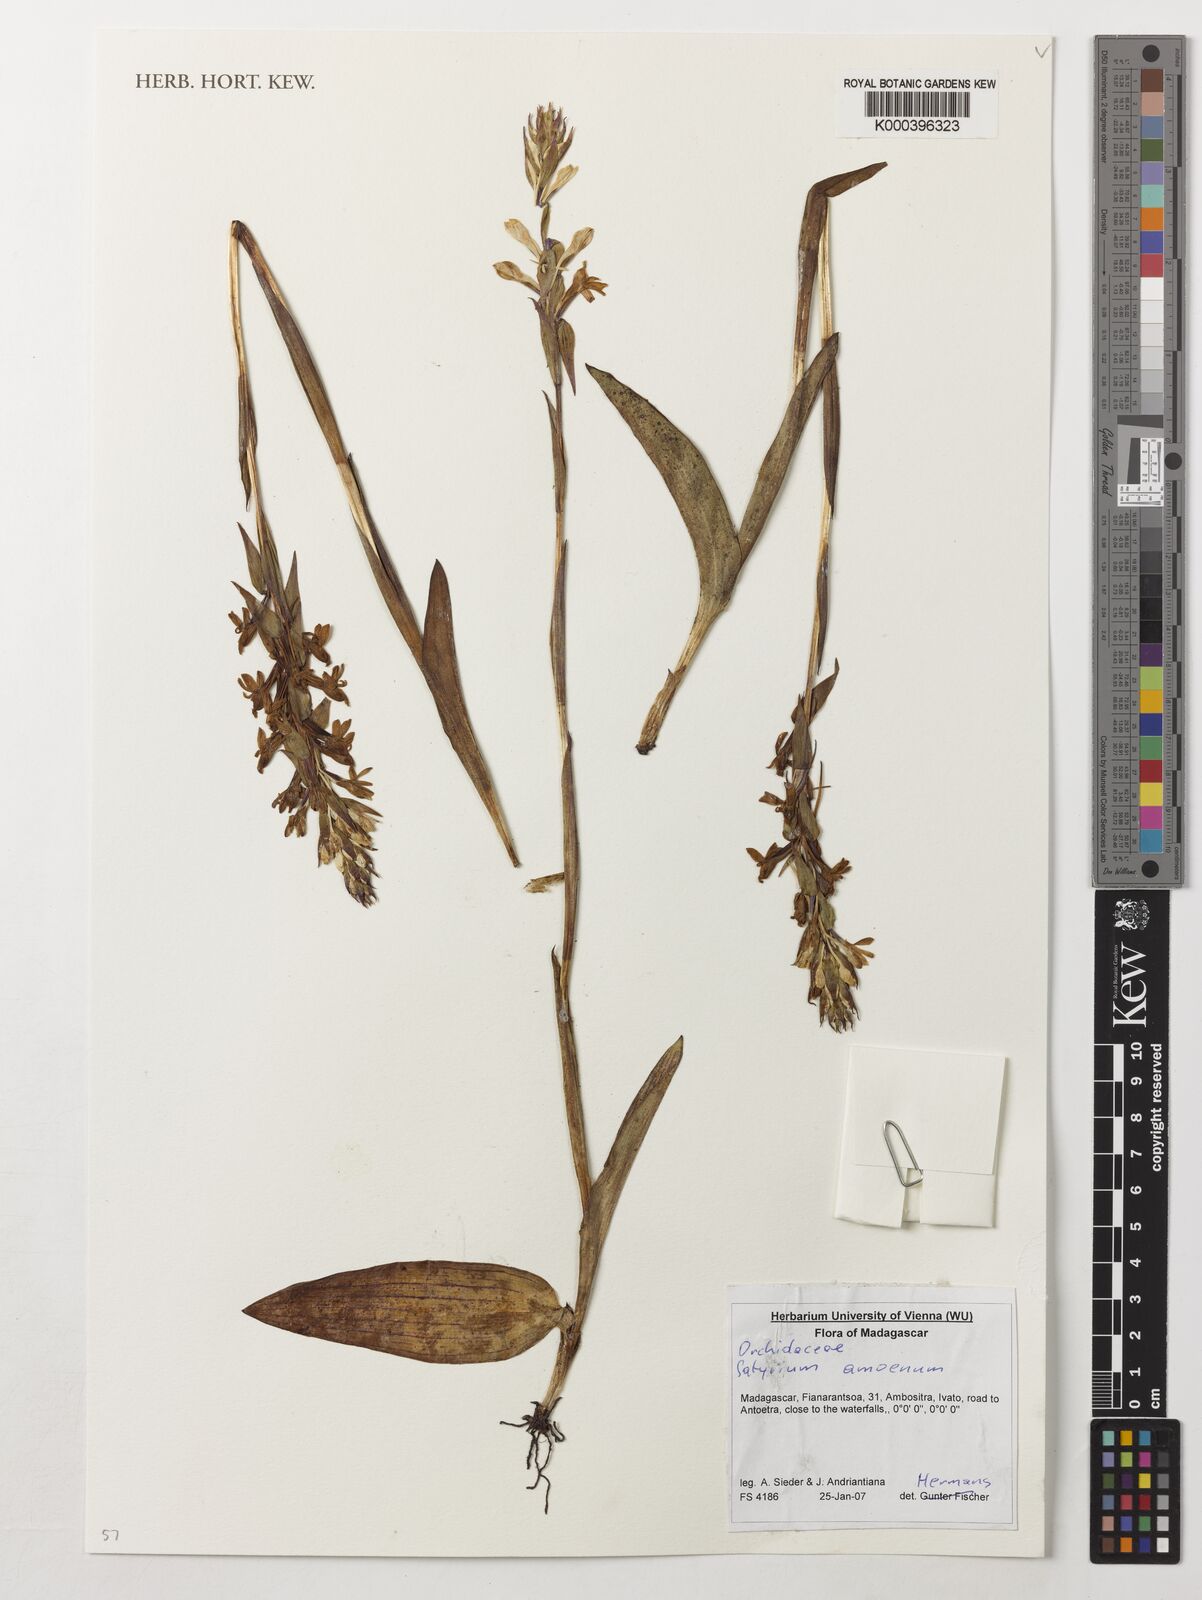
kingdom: Plantae
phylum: Tracheophyta
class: Liliopsida
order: Asparagales
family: Orchidaceae
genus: Satyrium
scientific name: Satyrium amoenum
